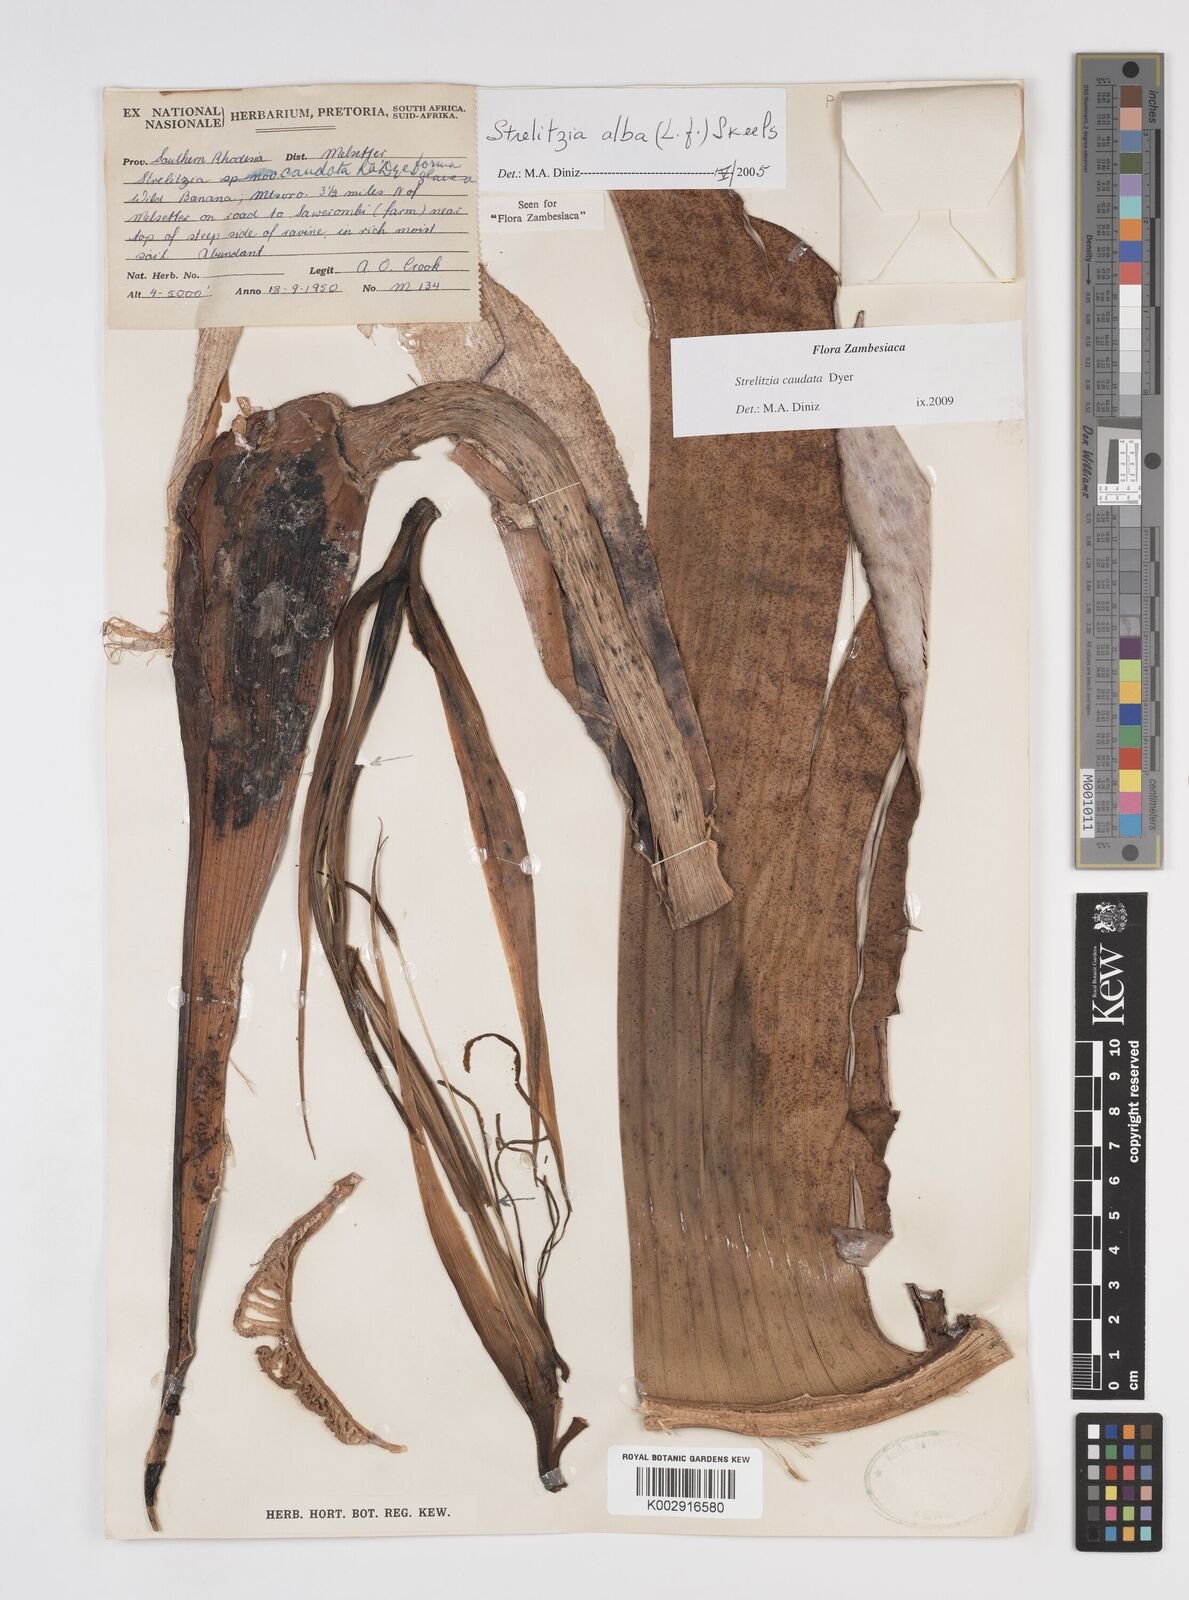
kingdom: Plantae
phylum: Tracheophyta
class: Liliopsida
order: Zingiberales
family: Strelitziaceae
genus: Strelitzia
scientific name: Strelitzia caudata
